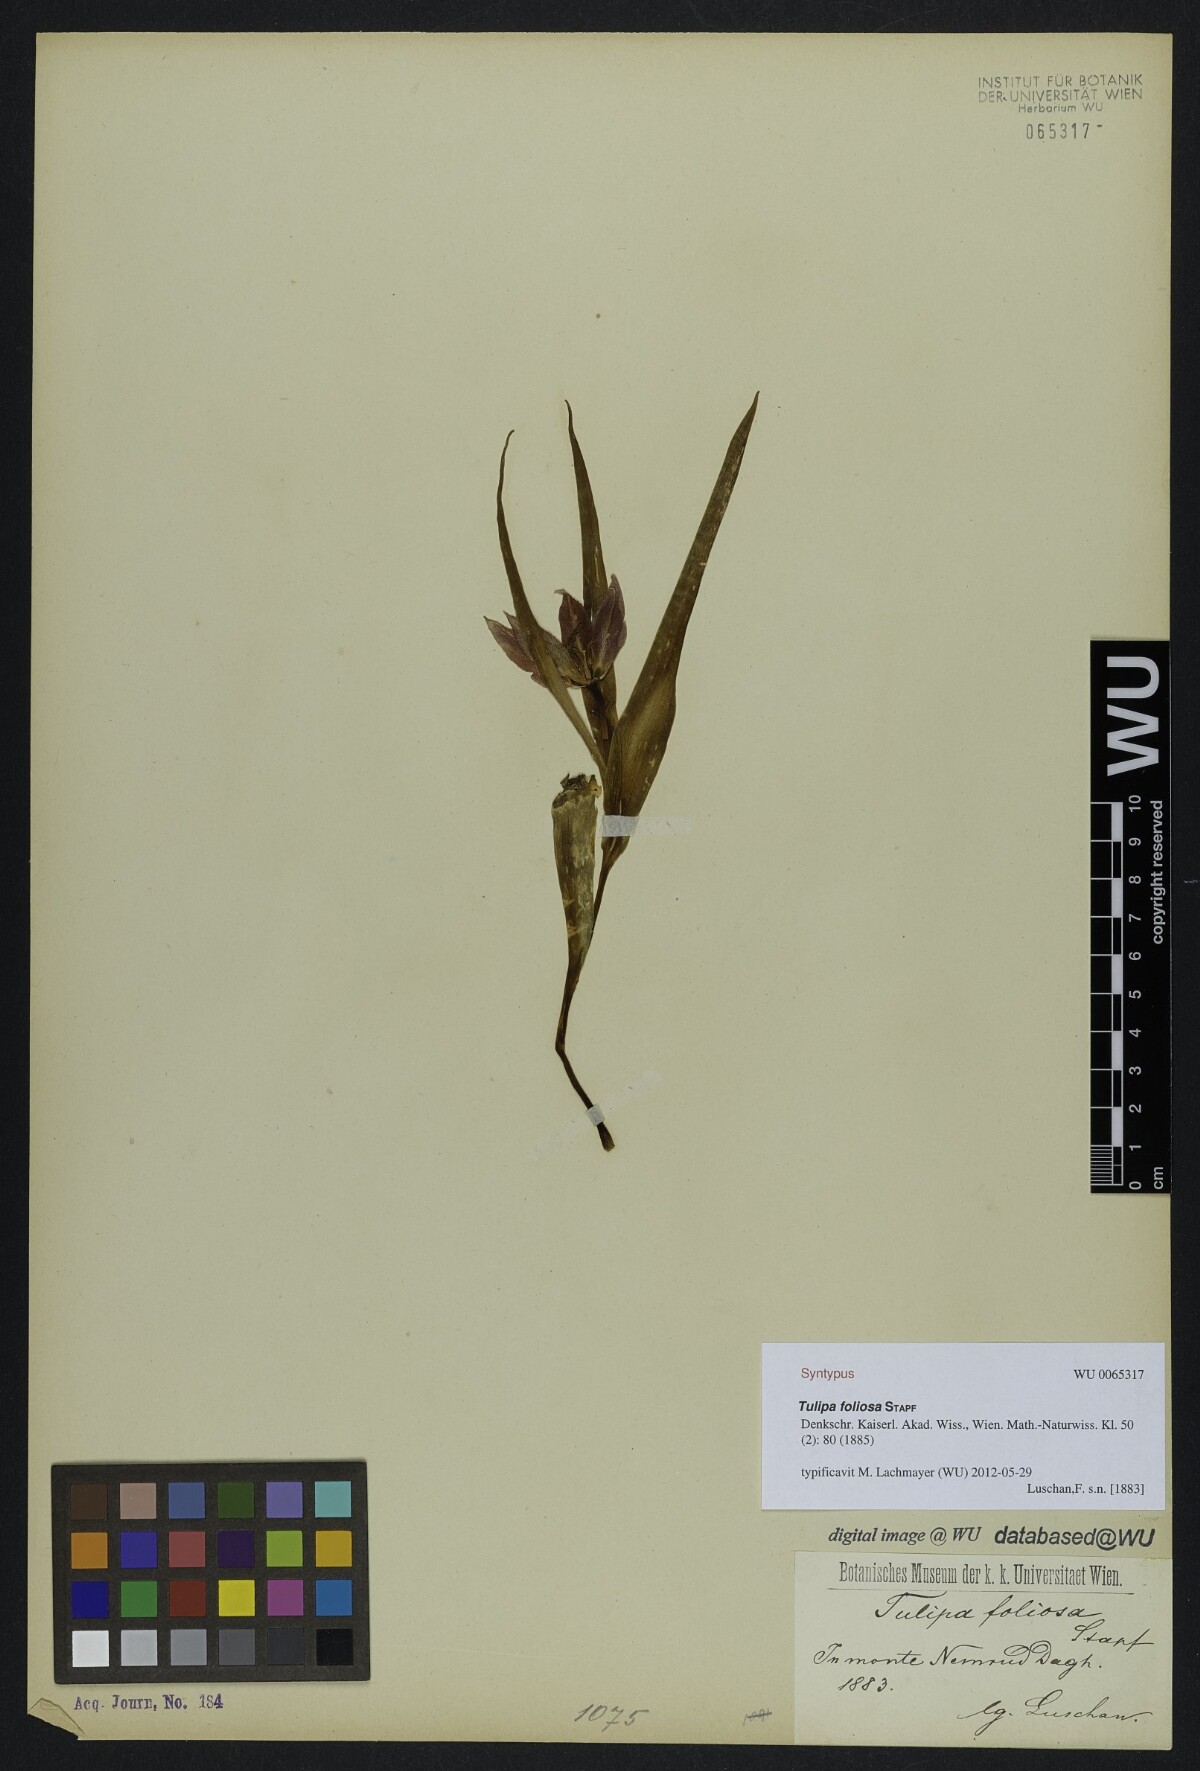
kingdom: Plantae
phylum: Tracheophyta
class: Liliopsida
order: Liliales
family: Liliaceae
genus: Tulipa
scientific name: Tulipa foliosa
